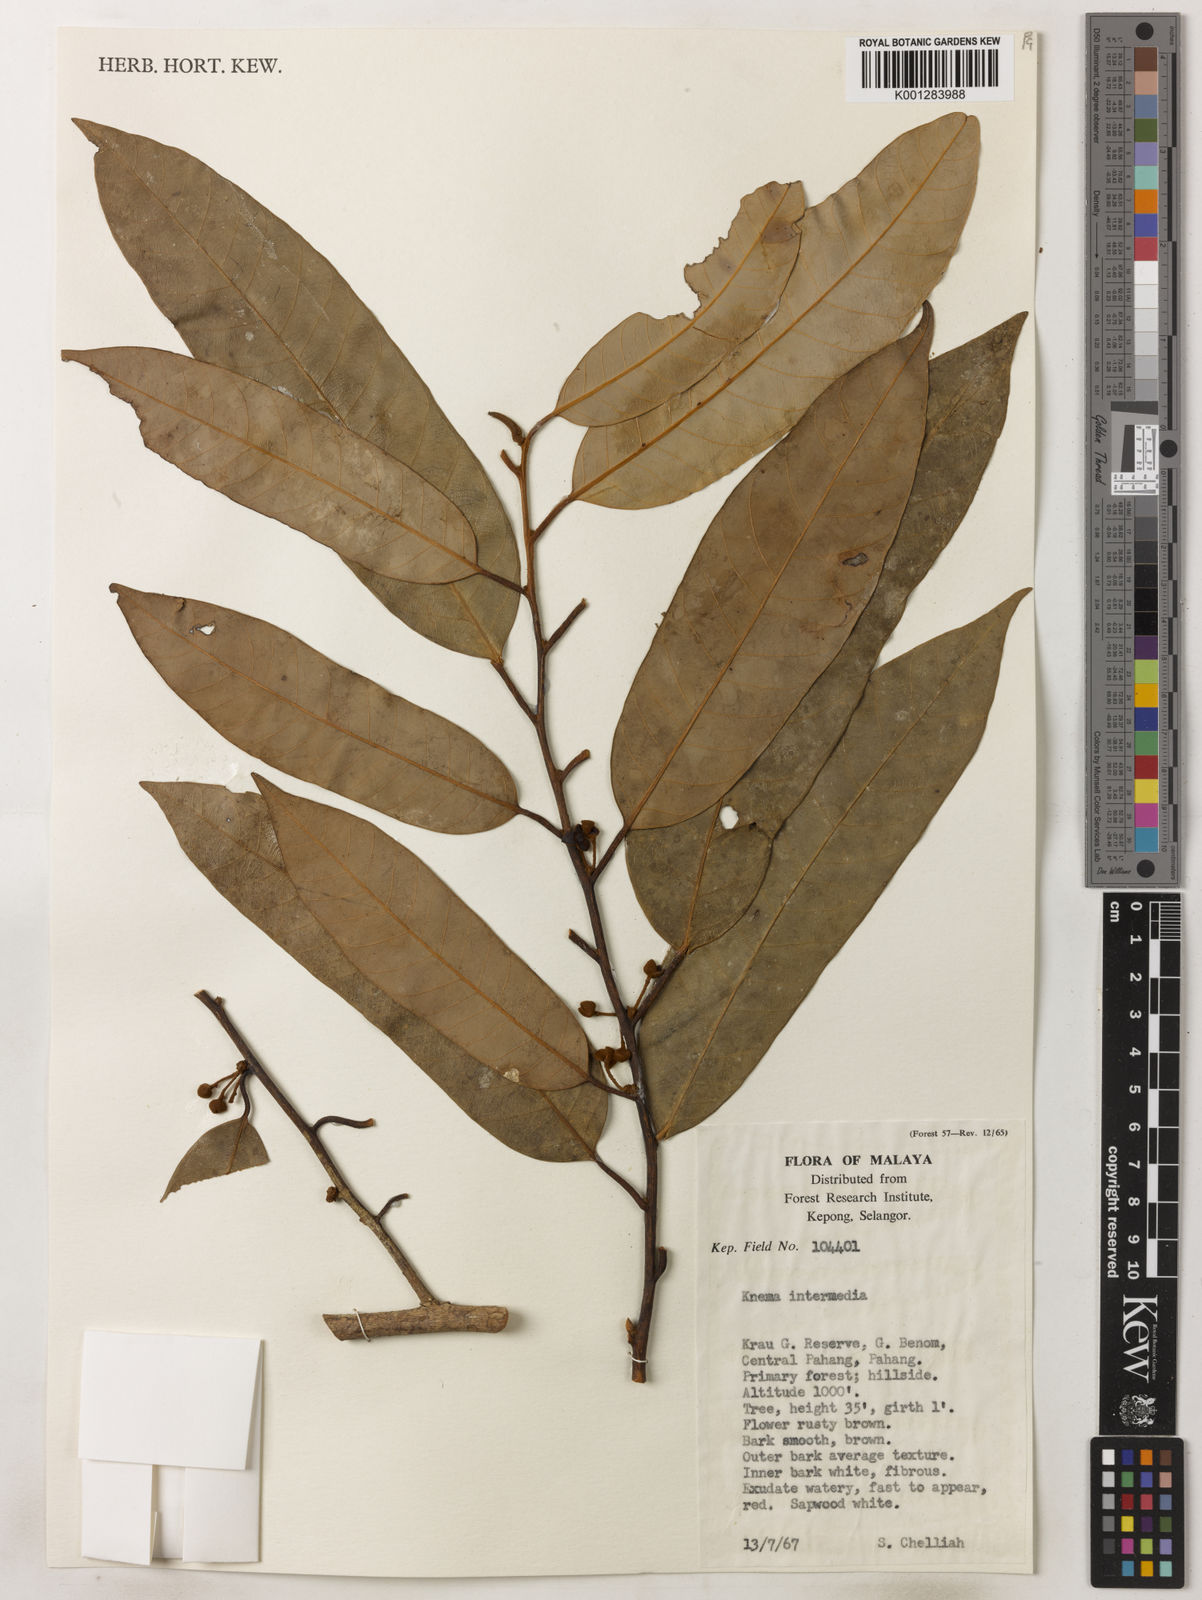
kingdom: Plantae
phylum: Tracheophyta
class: Magnoliopsida
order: Magnoliales
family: Myristicaceae
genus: Knema
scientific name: Knema intermedia
